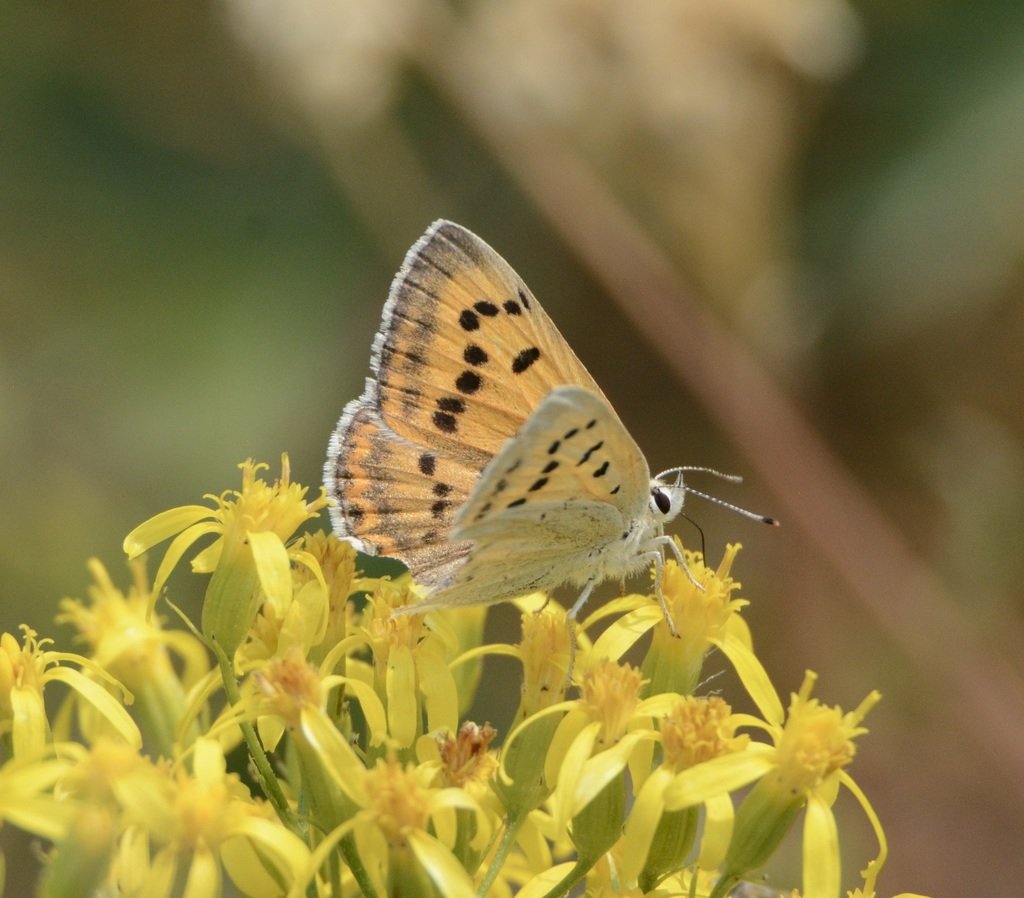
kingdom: Animalia
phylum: Arthropoda
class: Insecta
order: Lepidoptera
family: Sesiidae
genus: Sesia
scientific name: Sesia Lycaena helloides
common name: Purplish Copper
